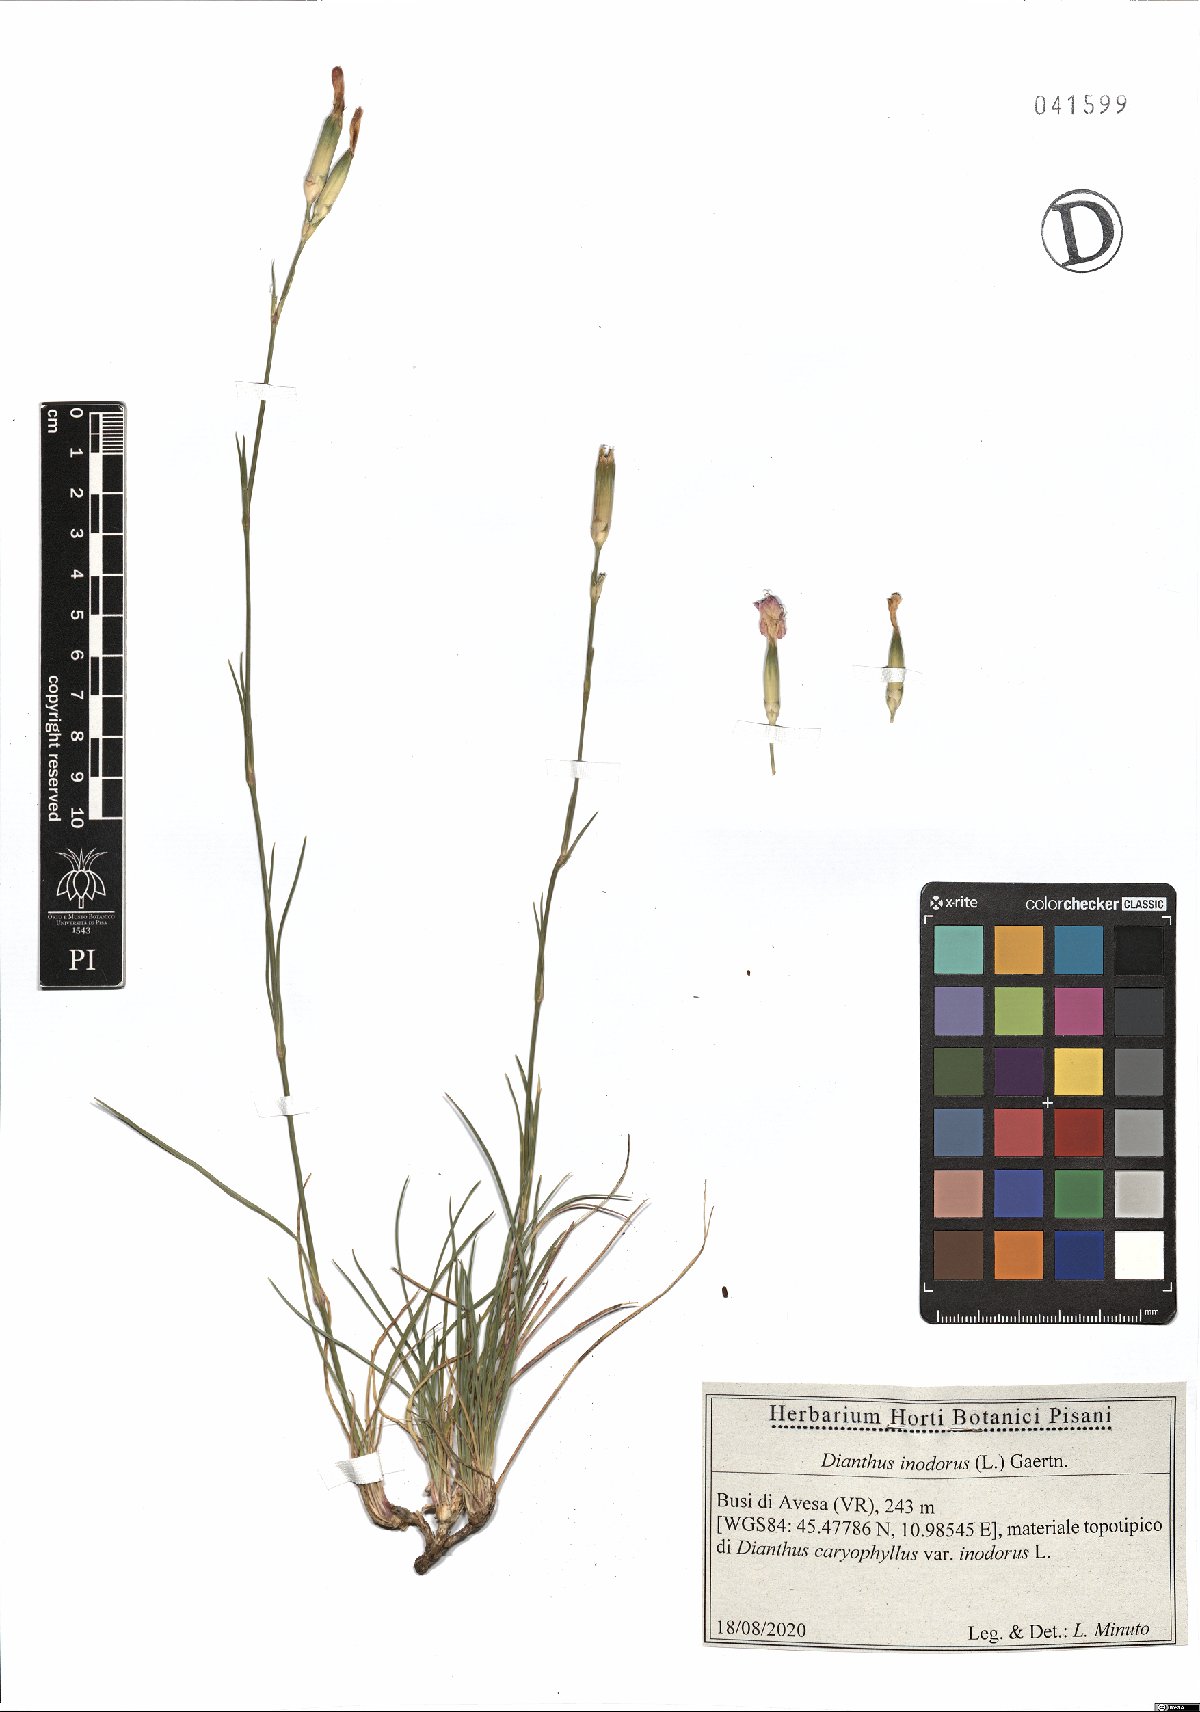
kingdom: Plantae
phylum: Tracheophyta
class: Magnoliopsida
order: Caryophyllales
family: Caryophyllaceae
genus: Dianthus
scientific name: Dianthus sylvestris
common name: Wood pink
